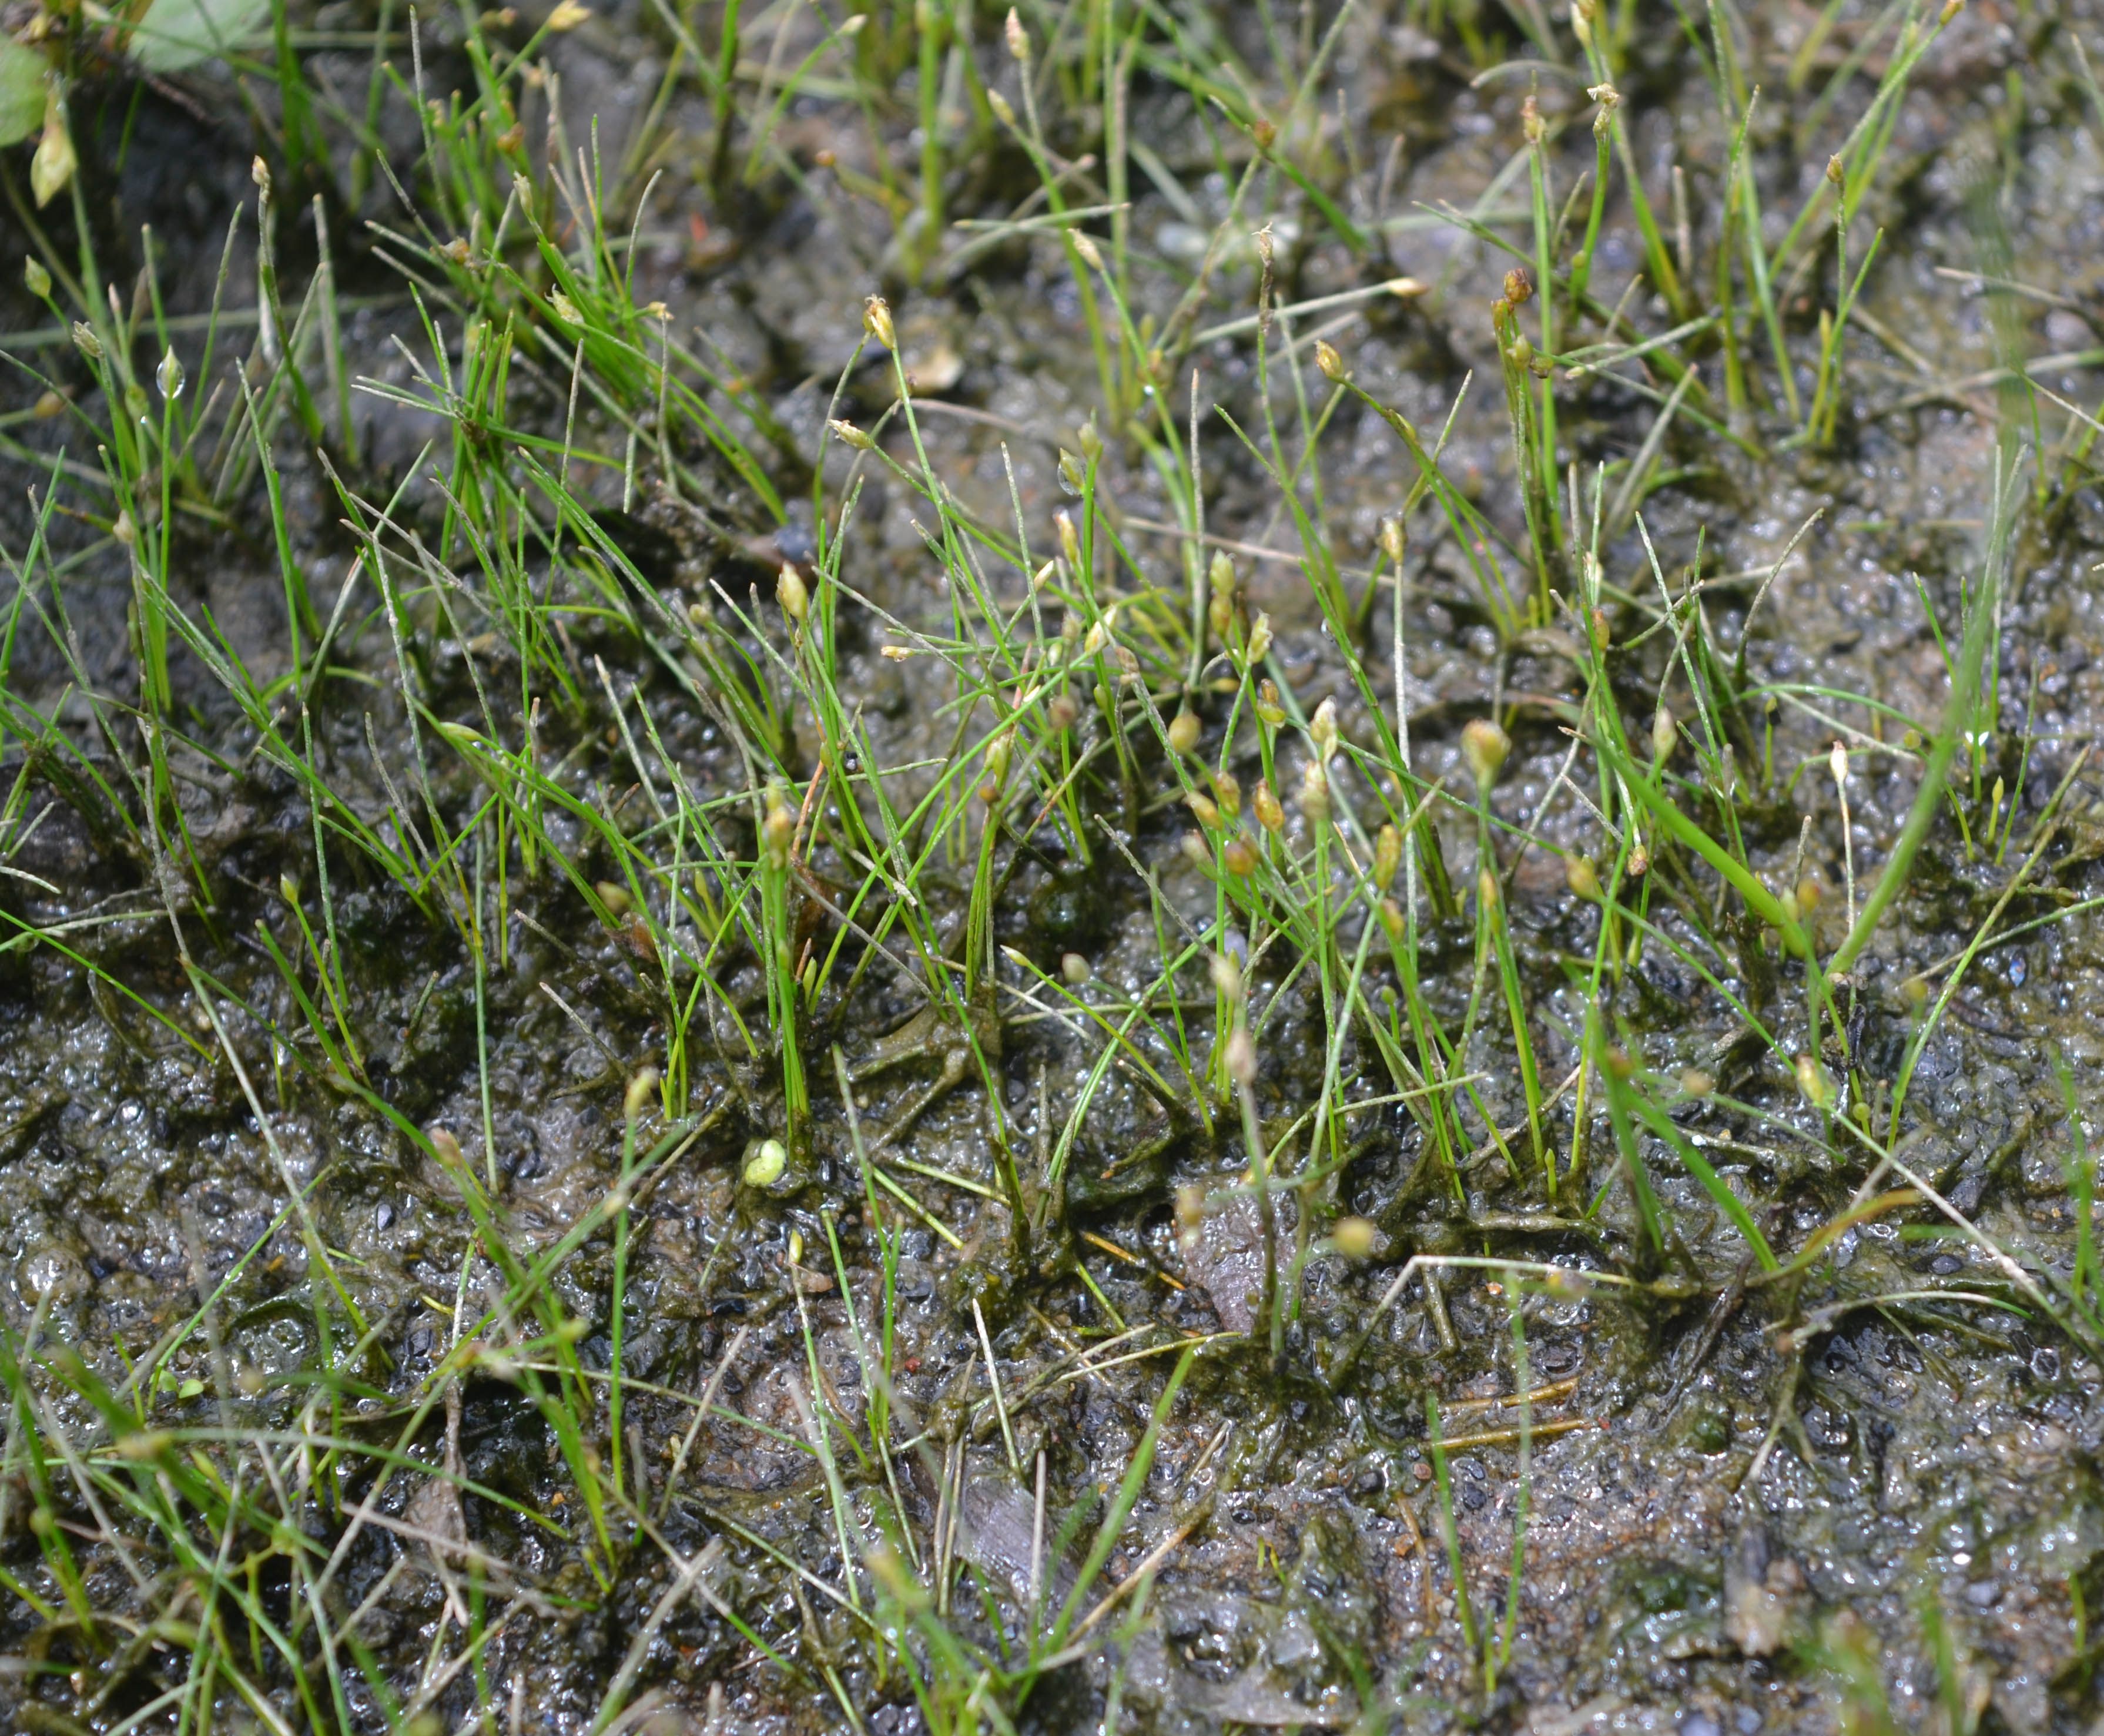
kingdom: Plantae
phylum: Tracheophyta
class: Liliopsida
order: Poales
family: Cyperaceae
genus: Eleocharis
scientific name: Eleocharis parvula
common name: Dwarf spike-rush
